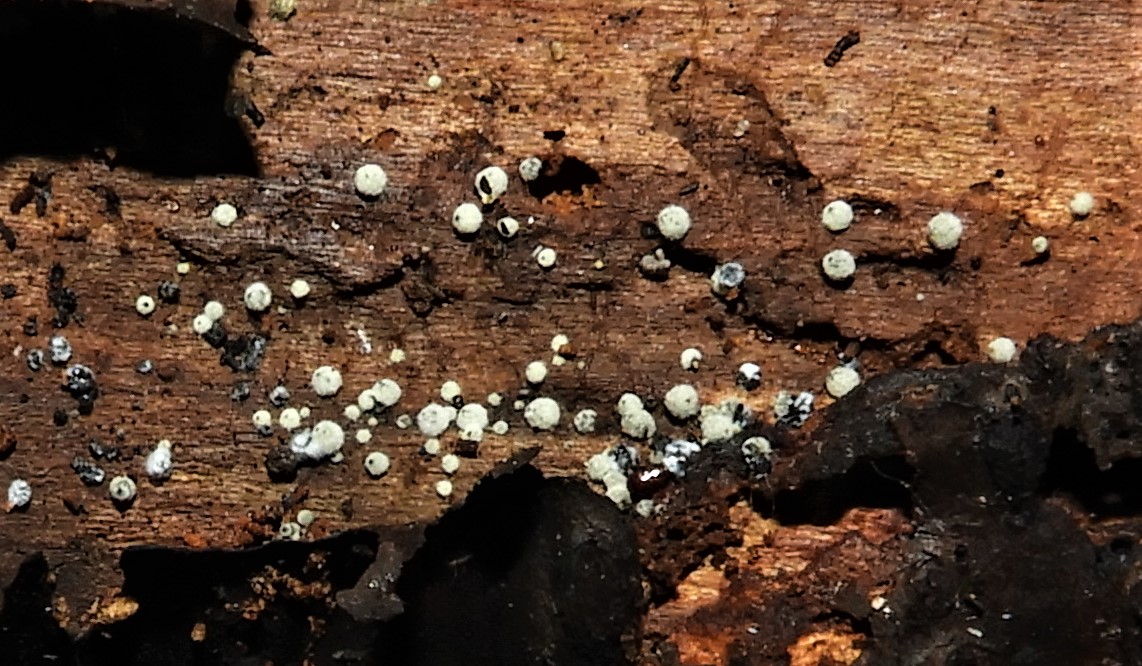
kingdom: Fungi
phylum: Ascomycota
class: Sordariomycetes
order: Sordariales
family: Lasiosphaeriaceae
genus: Lasiosphaeria
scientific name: Lasiosphaeria ovina
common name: fåre-kernesvamp
